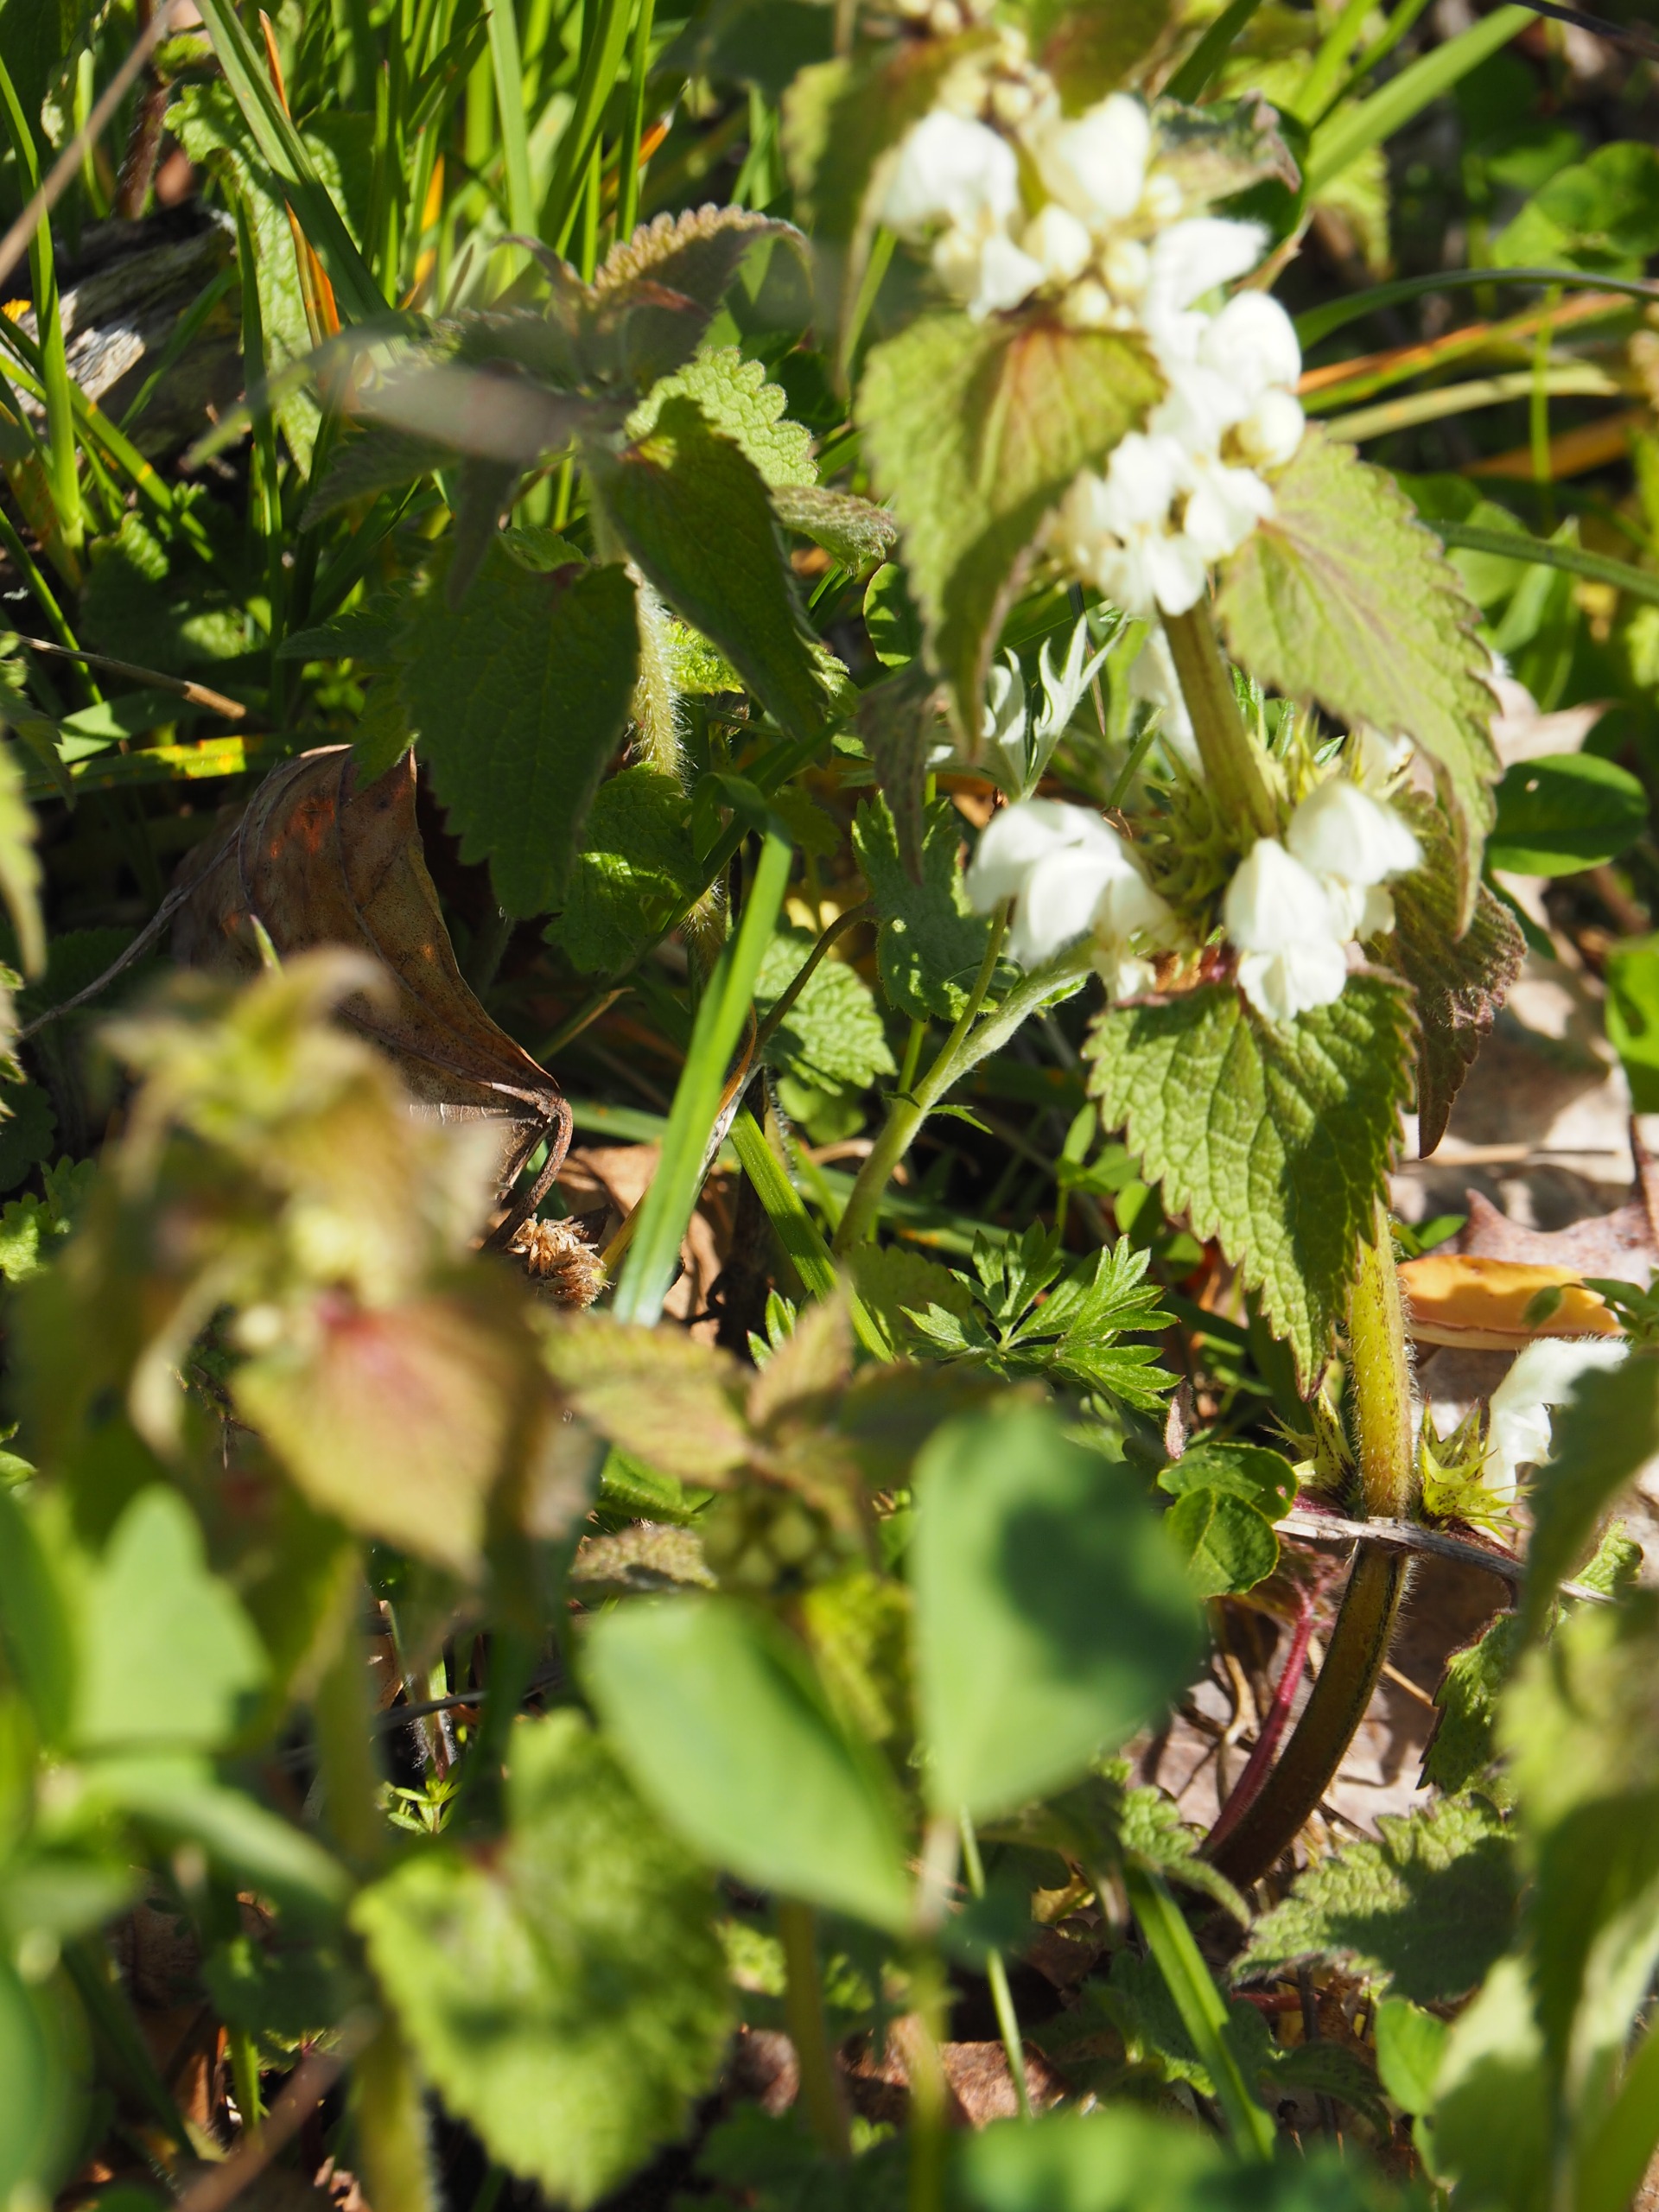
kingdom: Plantae
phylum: Tracheophyta
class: Magnoliopsida
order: Lamiales
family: Lamiaceae
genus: Lamium
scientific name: Lamium album
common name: Døvnælde
